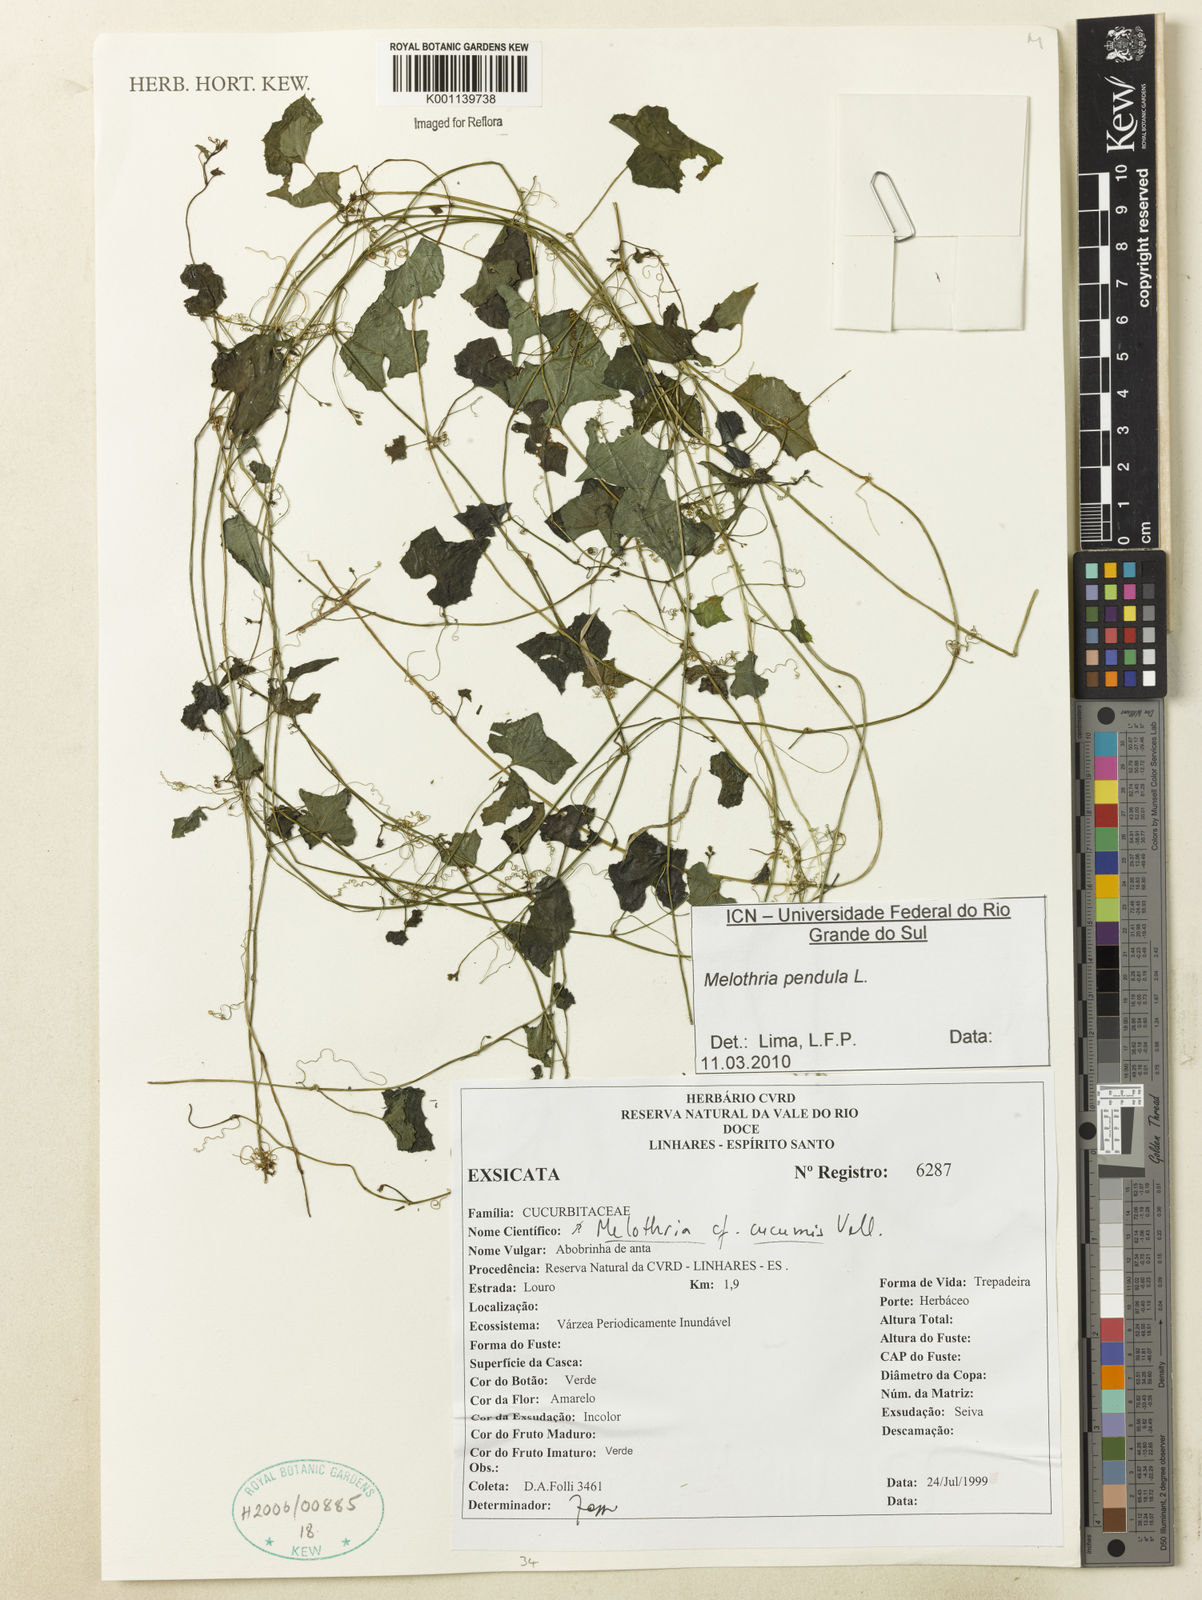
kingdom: Plantae
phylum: Tracheophyta
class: Magnoliopsida
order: Cucurbitales
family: Cucurbitaceae
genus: Melothria
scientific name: Melothria pendula
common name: Creeping-cucumber
